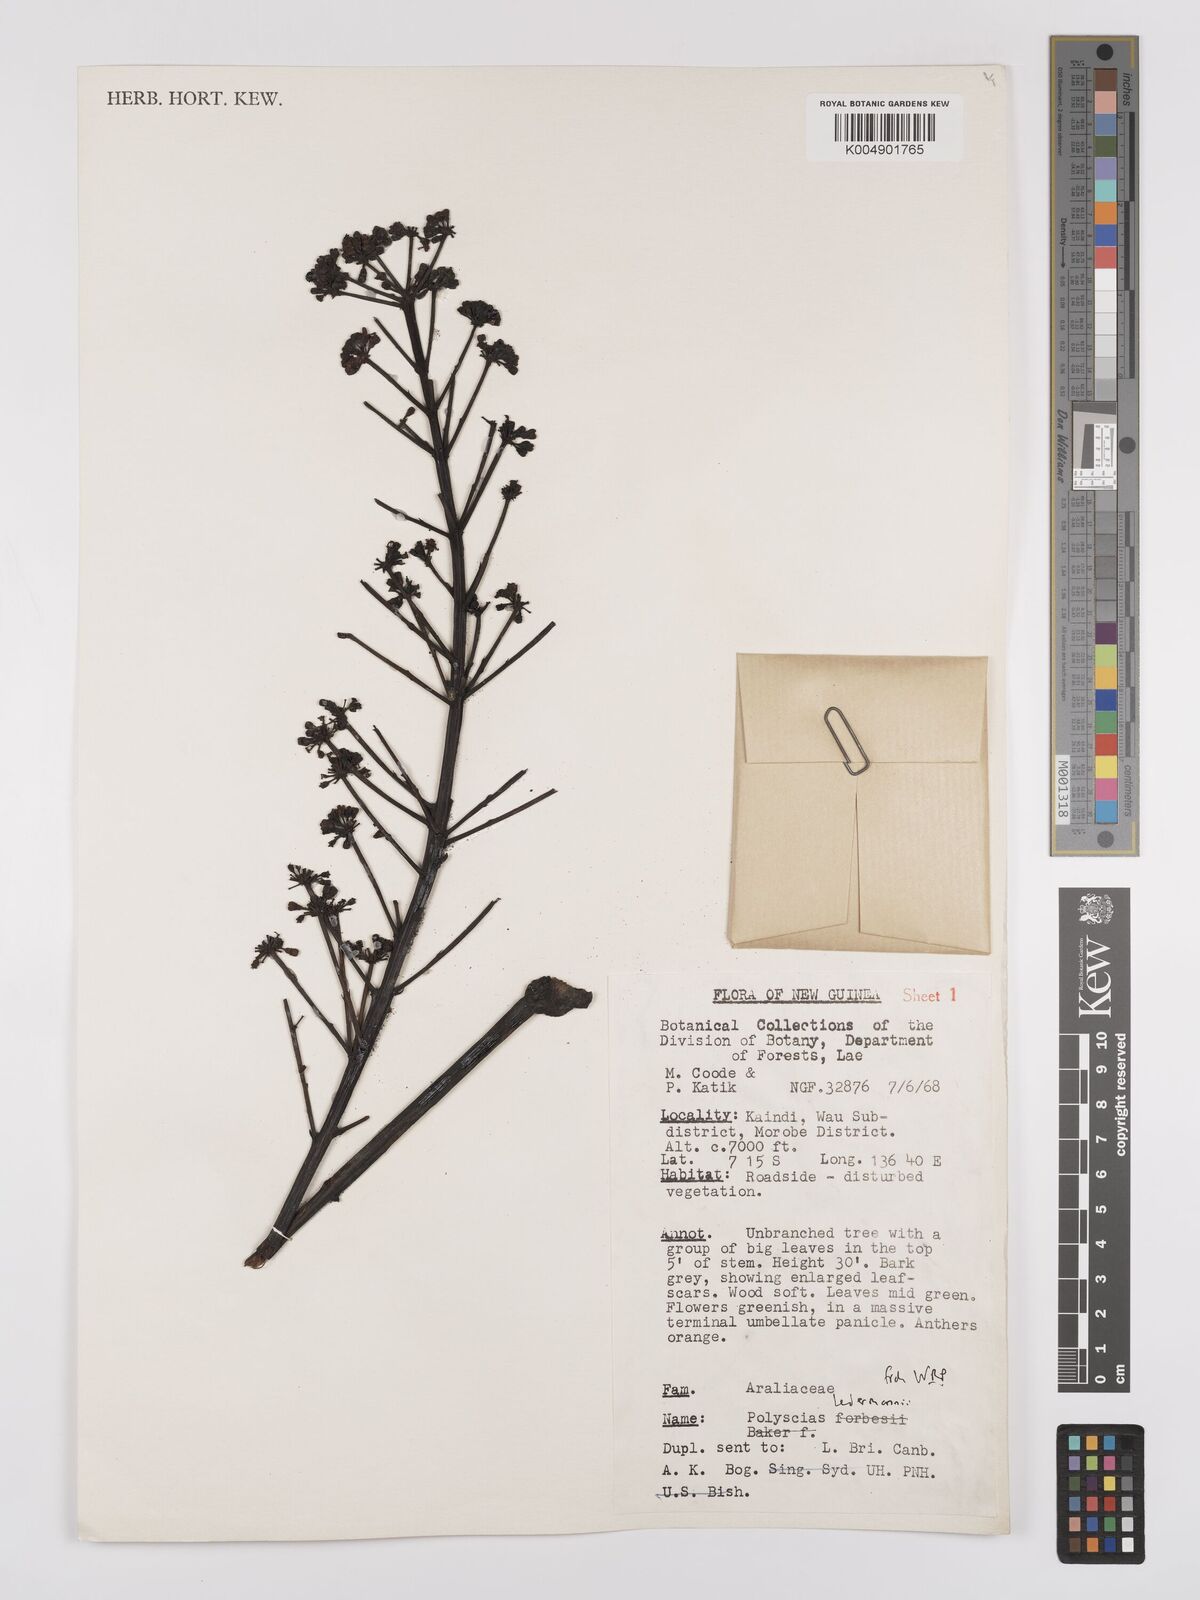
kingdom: Plantae
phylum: Tracheophyta
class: Magnoliopsida
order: Apiales
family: Araliaceae
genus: Polyscias
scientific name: Polyscias ledermannii
